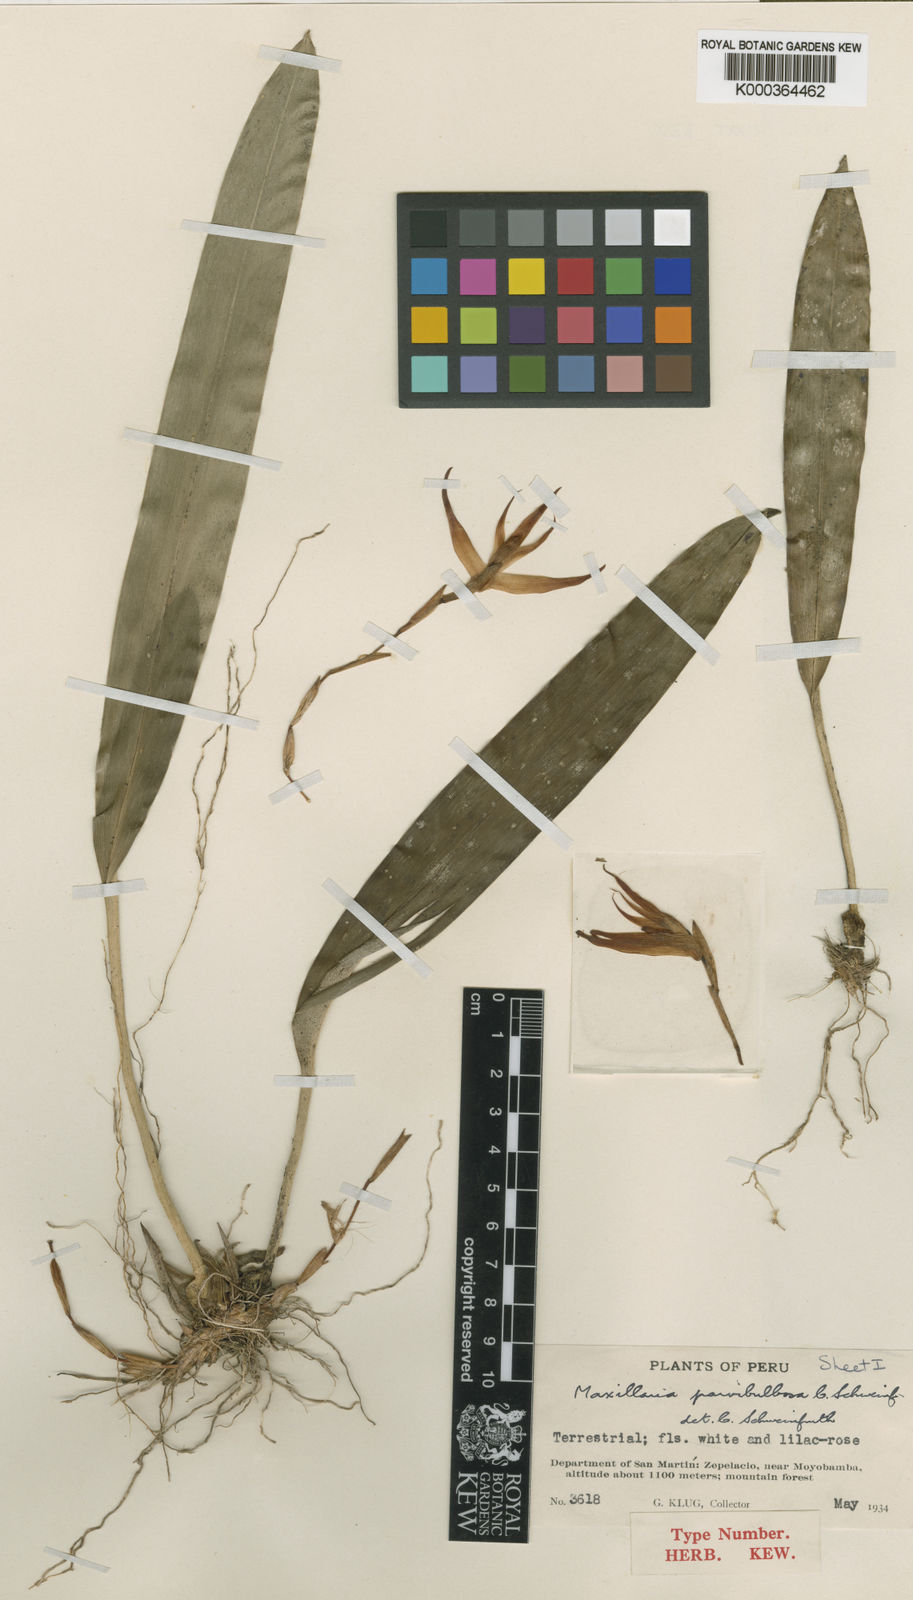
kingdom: Plantae
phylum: Tracheophyta
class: Liliopsida
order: Asparagales
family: Orchidaceae
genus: Maxillaria
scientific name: Maxillaria parvibulbosa
